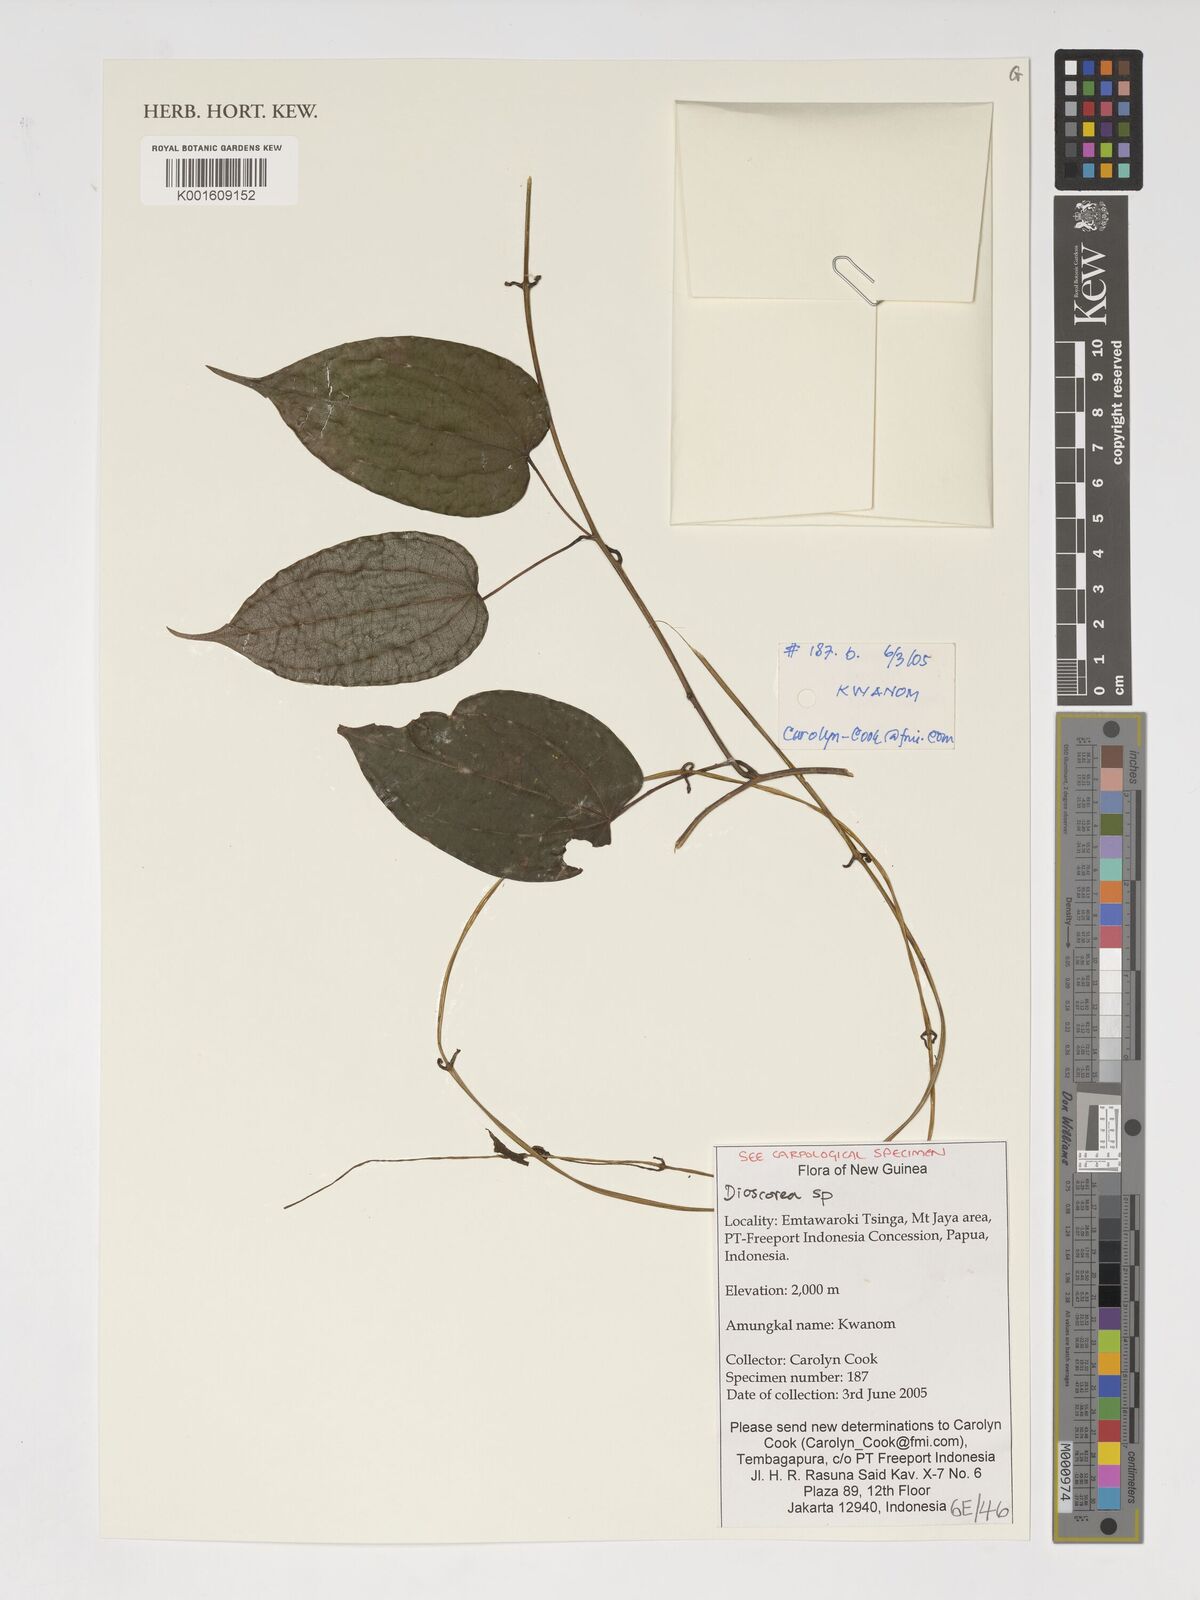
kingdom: Plantae
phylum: Tracheophyta
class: Liliopsida
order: Dioscoreales
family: Dioscoreaceae
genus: Dioscorea
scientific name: Dioscorea
